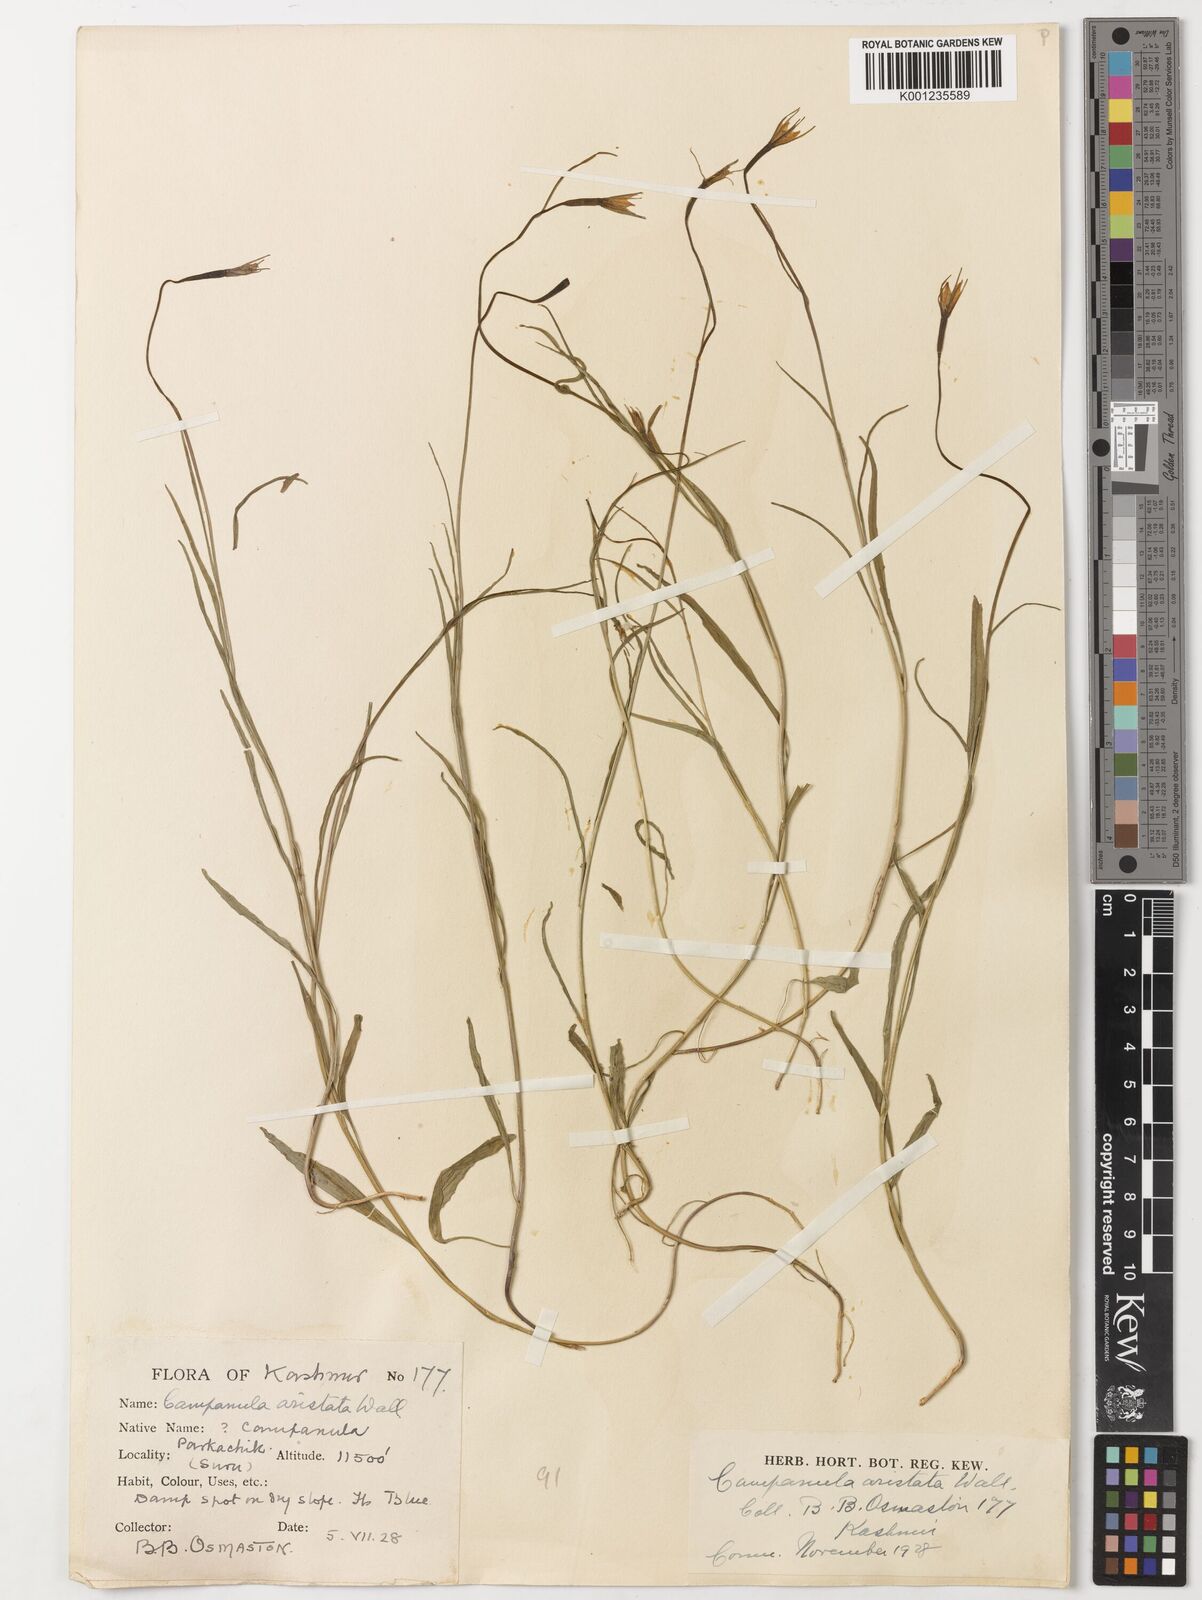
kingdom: Plantae
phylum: Tracheophyta
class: Magnoliopsida
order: Asterales
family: Campanulaceae
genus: Campanula
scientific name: Campanula aristata
